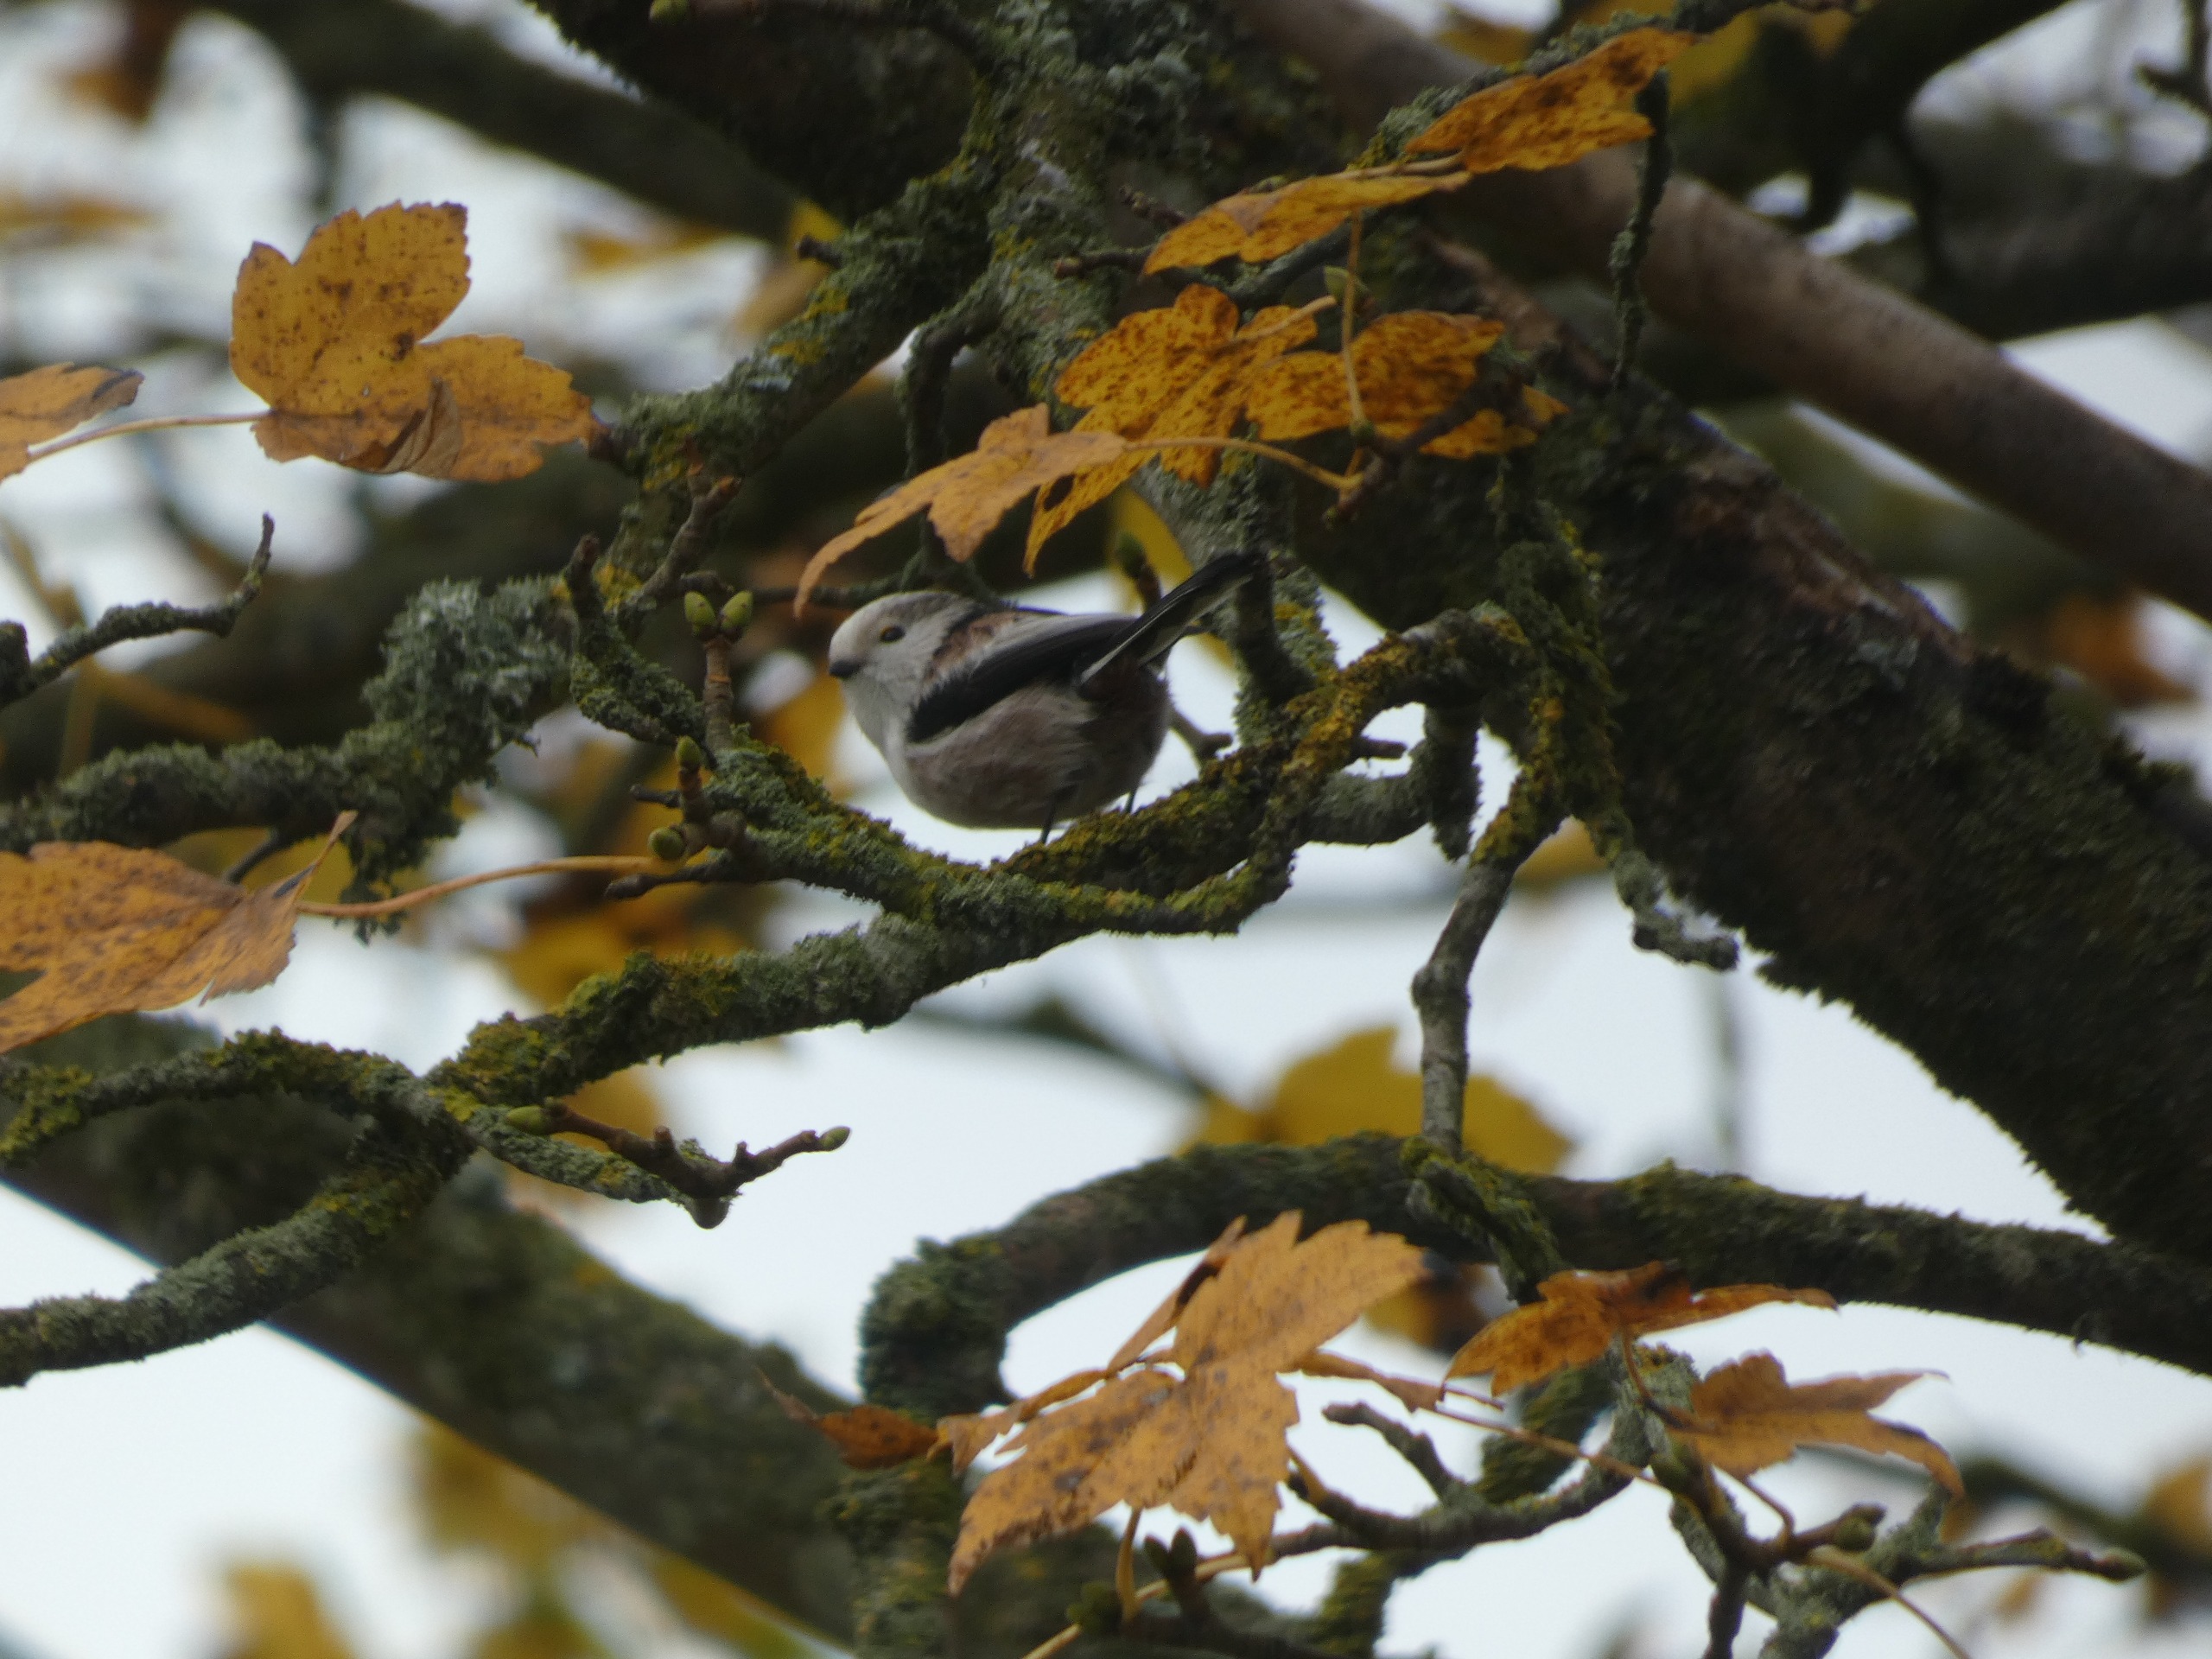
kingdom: Animalia
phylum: Chordata
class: Aves
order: Passeriformes
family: Aegithalidae
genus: Aegithalos
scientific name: Aegithalos caudatus
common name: Halemejse
